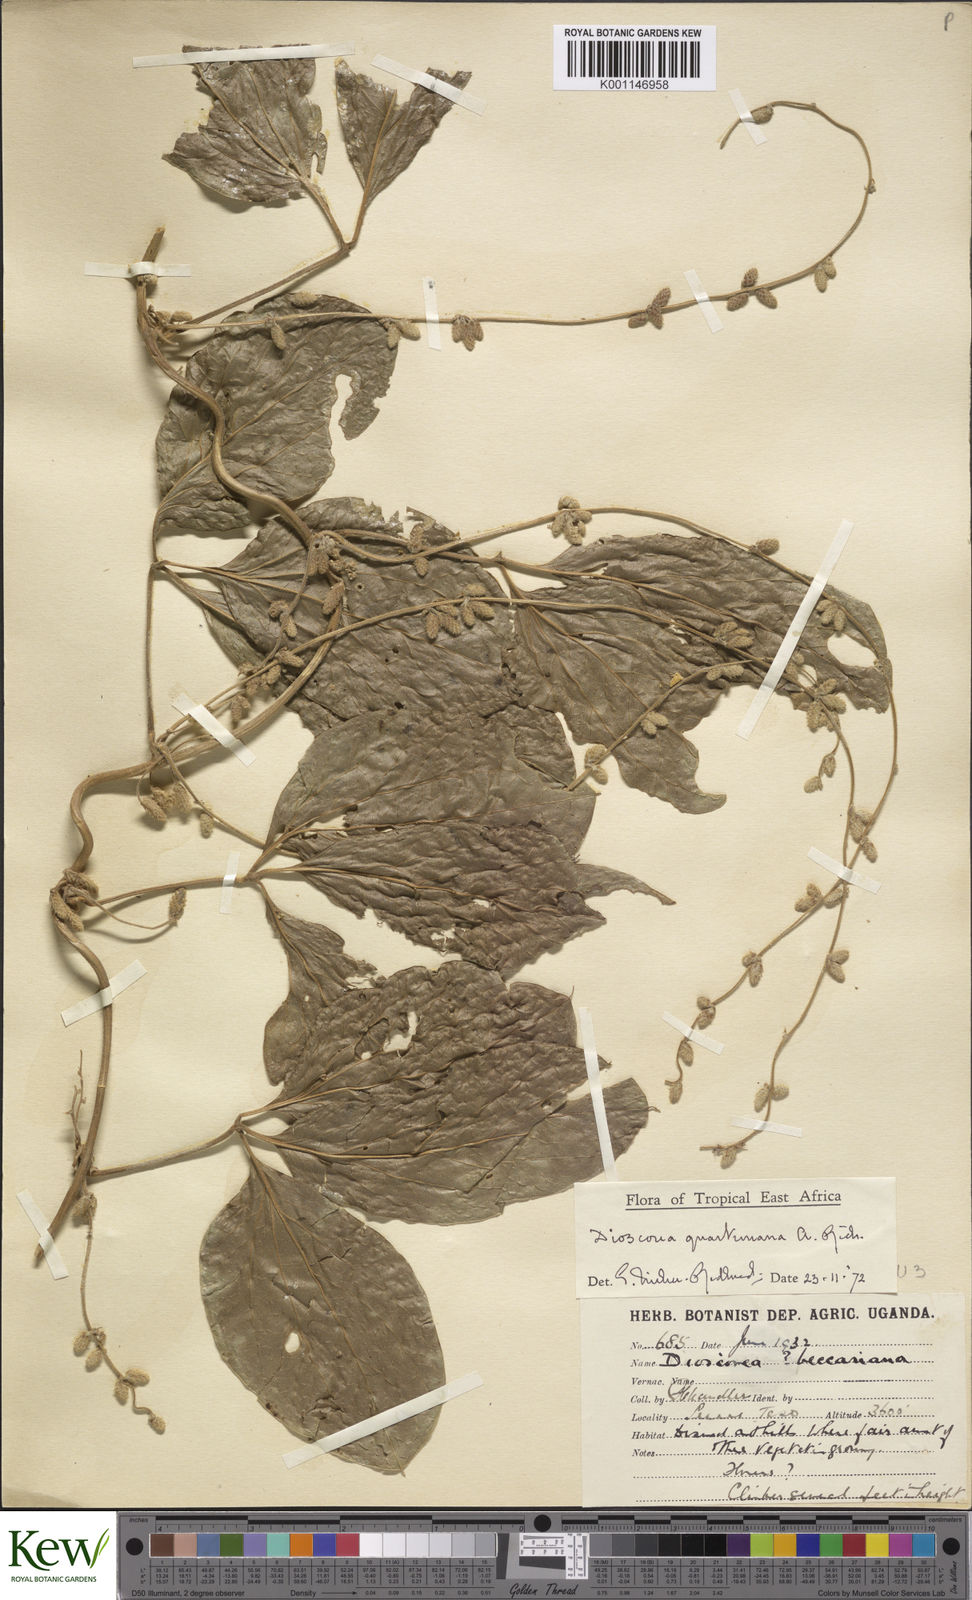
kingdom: Plantae
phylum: Tracheophyta
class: Liliopsida
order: Dioscoreales
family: Dioscoreaceae
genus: Dioscorea
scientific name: Dioscorea quartiniana
